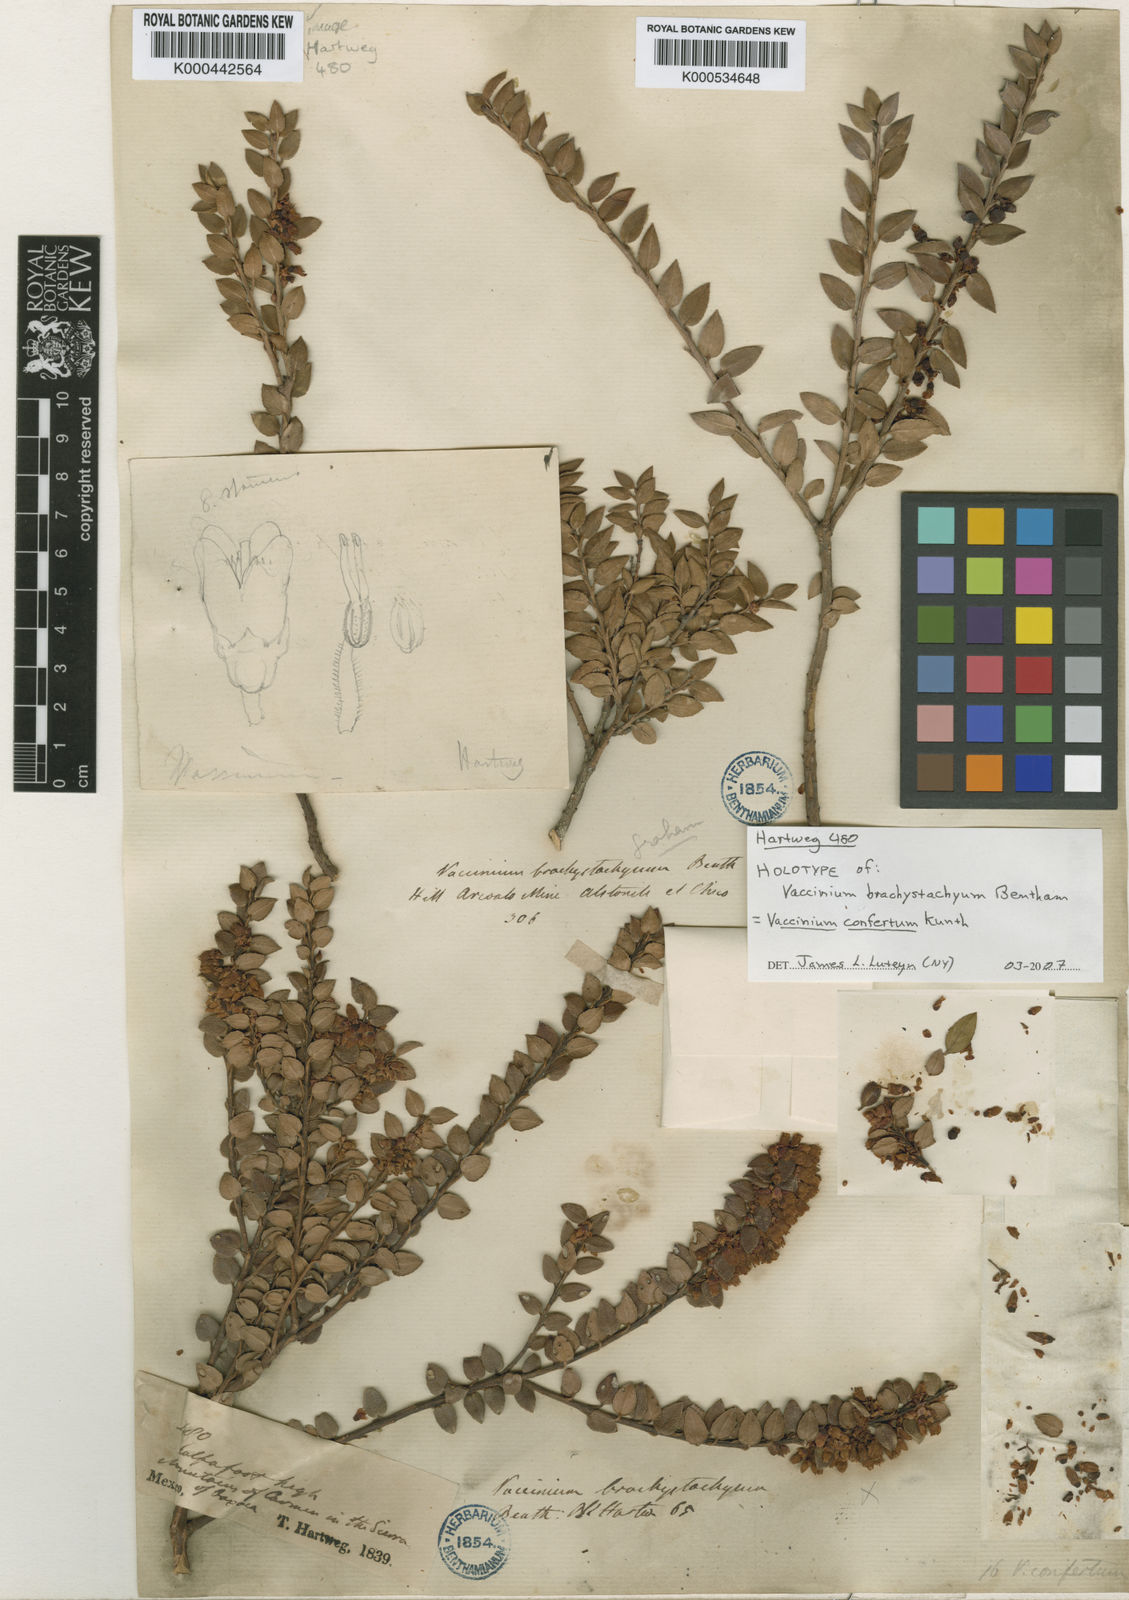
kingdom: Plantae
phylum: Tracheophyta
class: Magnoliopsida
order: Ericales
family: Ericaceae
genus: Vaccinium
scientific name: Vaccinium confertum
